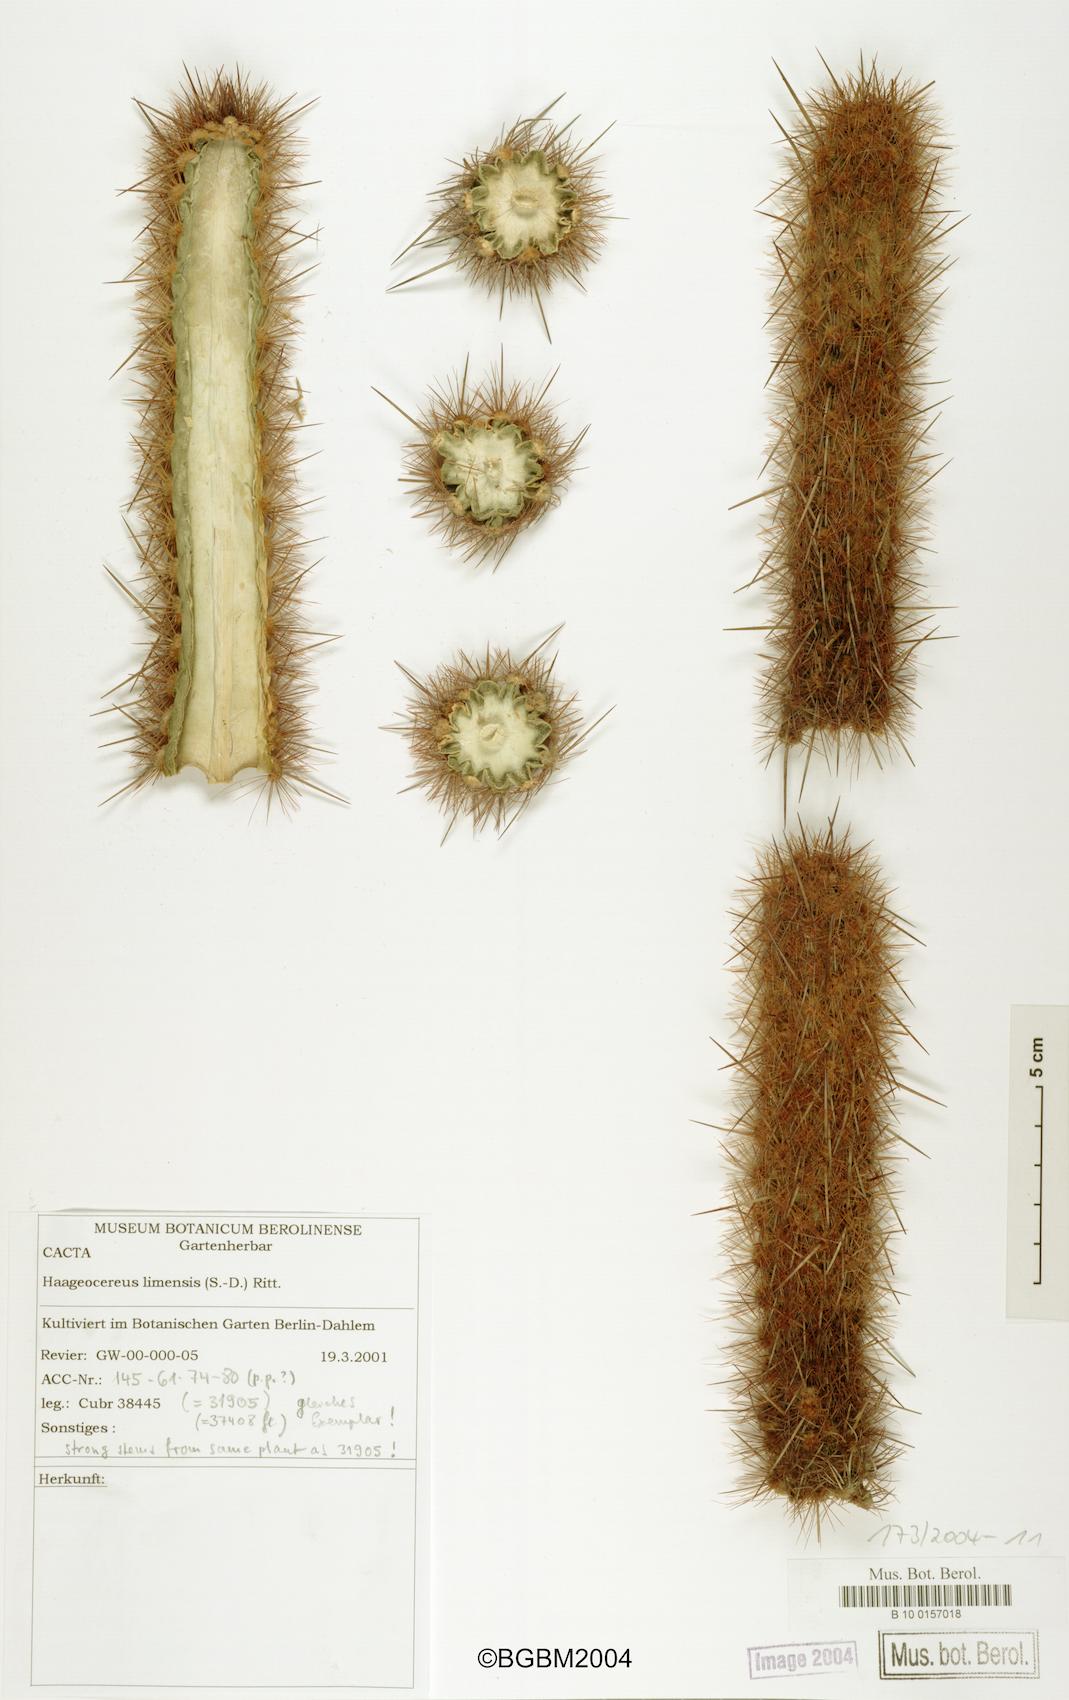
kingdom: Plantae
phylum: Tracheophyta
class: Magnoliopsida
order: Caryophyllales
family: Cactaceae
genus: Haageocereus
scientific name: Haageocereus acranthus
